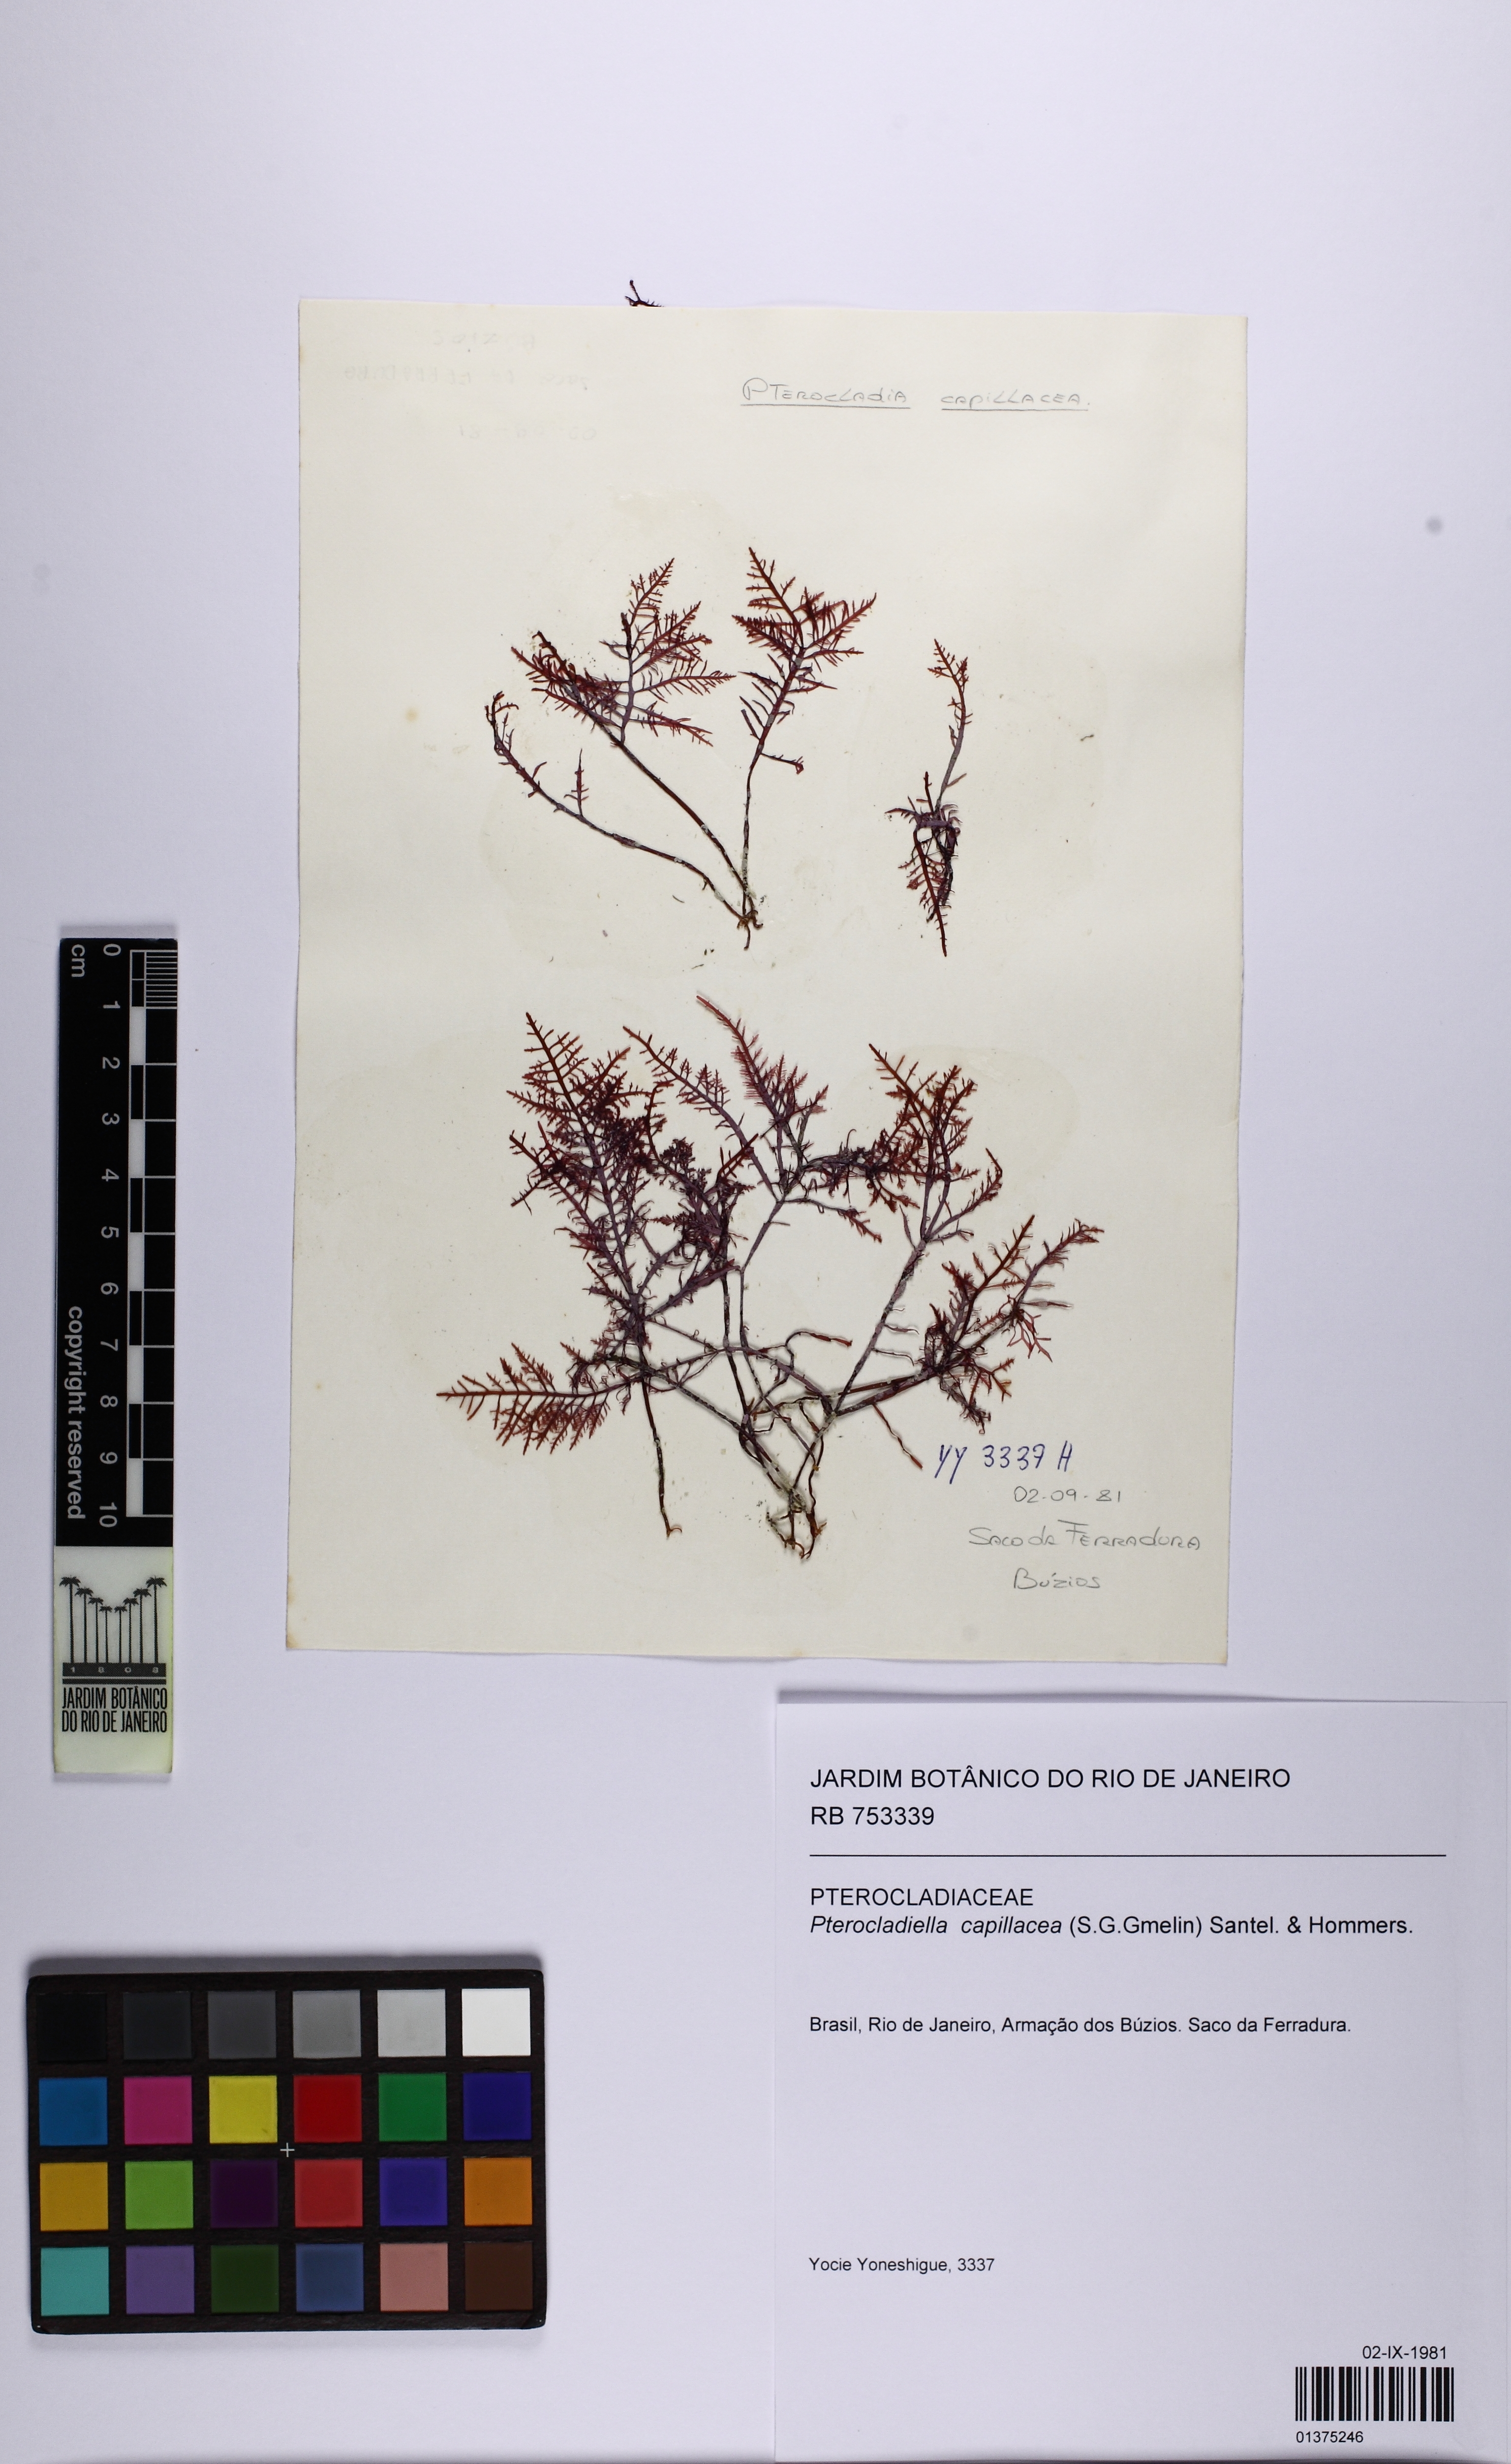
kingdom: Plantae
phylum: Rhodophyta
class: Florideophyceae
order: Gelidiales
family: Pterocladiaceae
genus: Pterocladiella
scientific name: Pterocladiella capillacea
